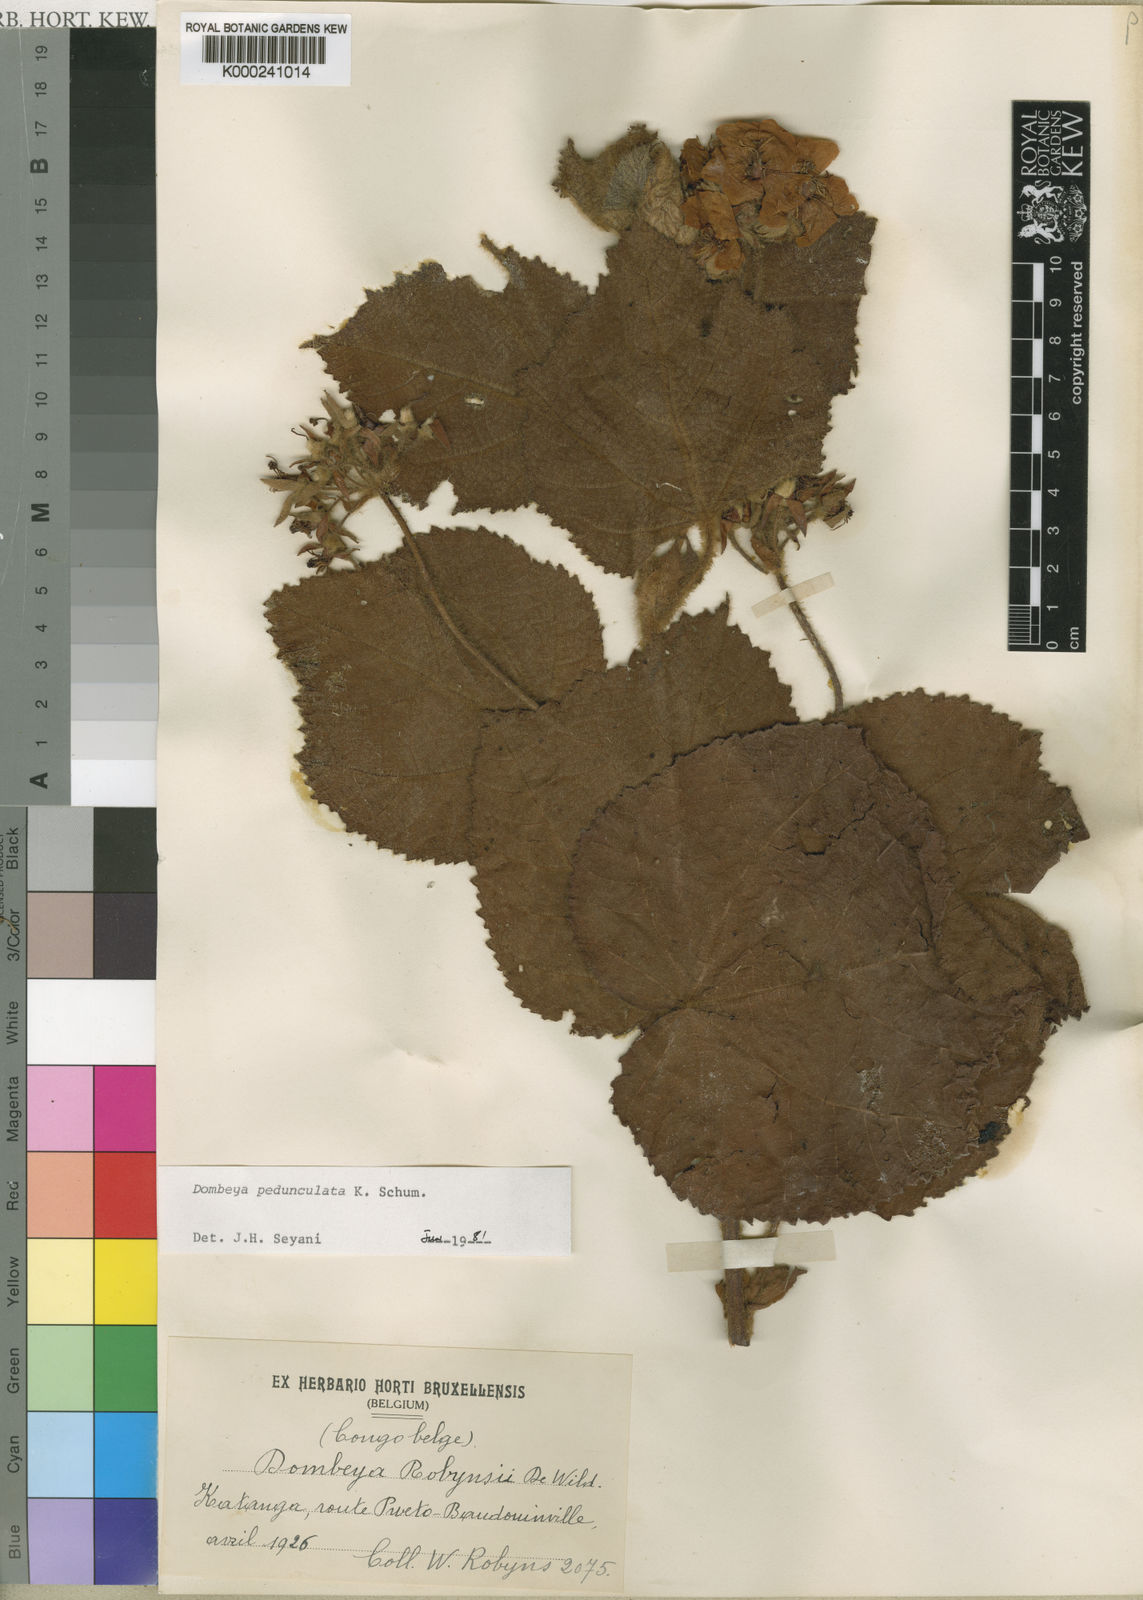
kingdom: Plantae
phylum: Tracheophyta
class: Magnoliopsida
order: Malvales
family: Malvaceae
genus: Dombeya
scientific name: Dombeya buettneri
